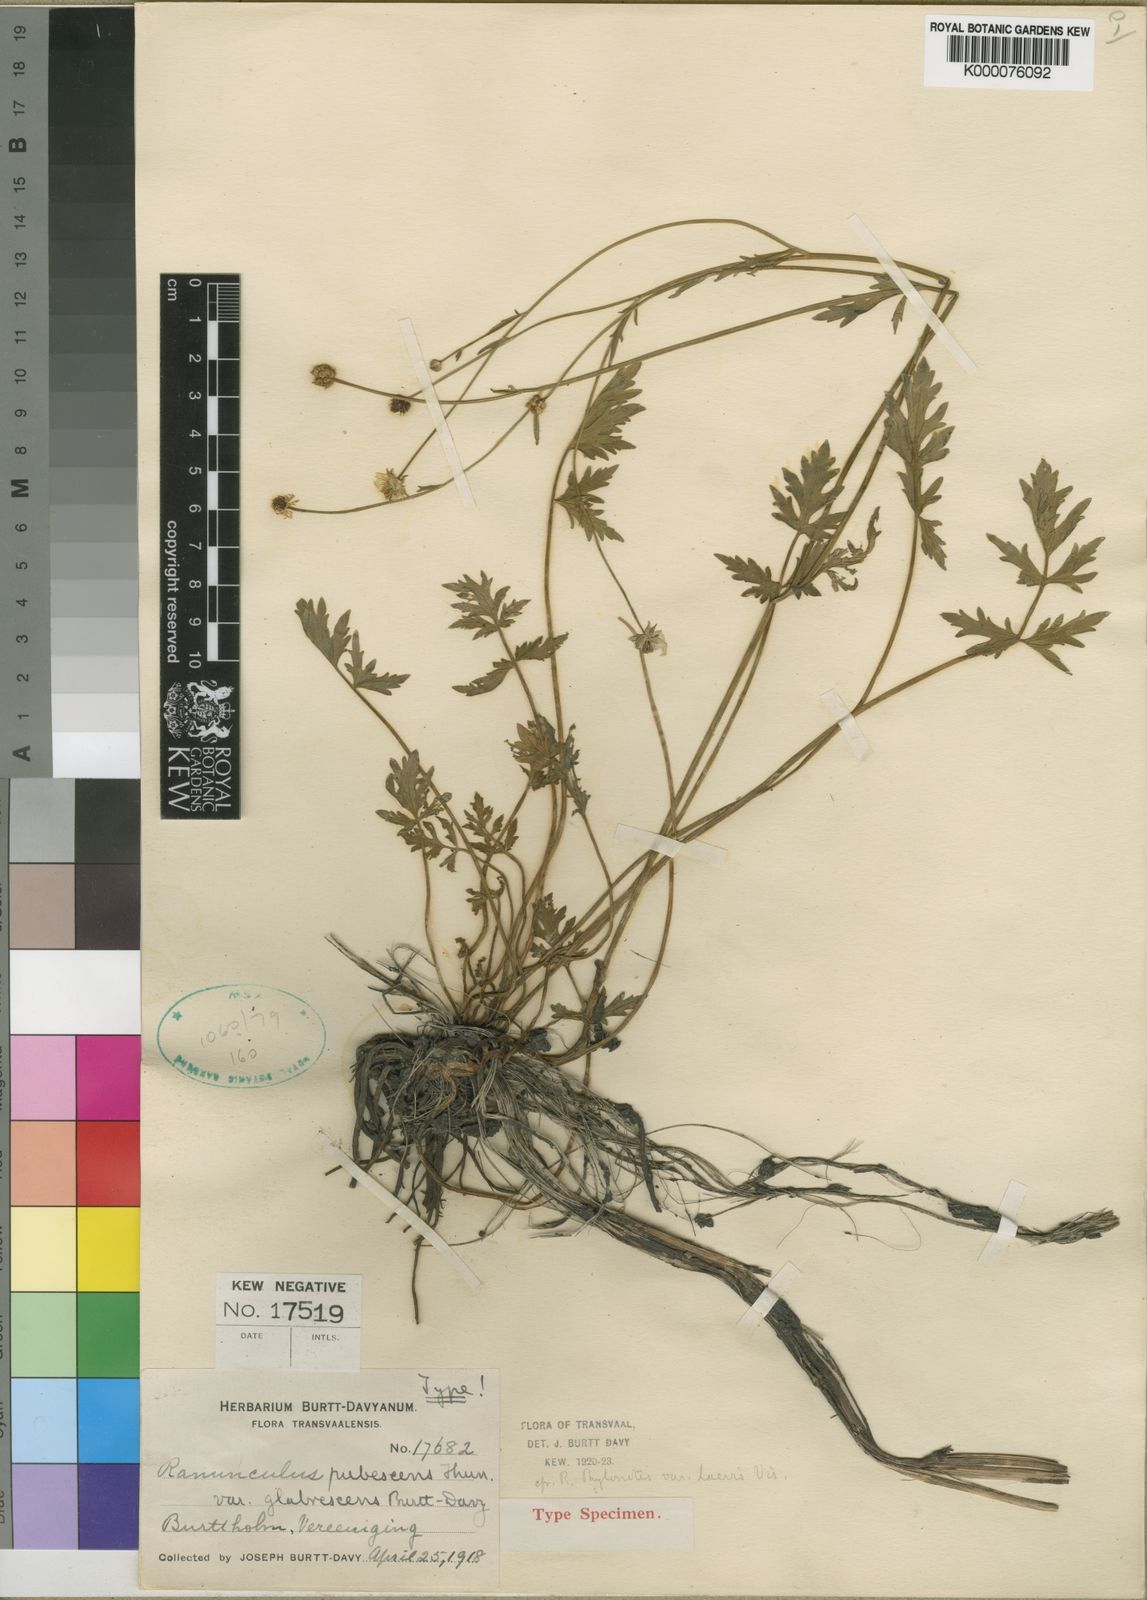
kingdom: Plantae
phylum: Tracheophyta
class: Magnoliopsida
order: Ranunculales
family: Ranunculaceae
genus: Ranunculus
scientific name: Ranunculus multifidus
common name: Wild buttercup
